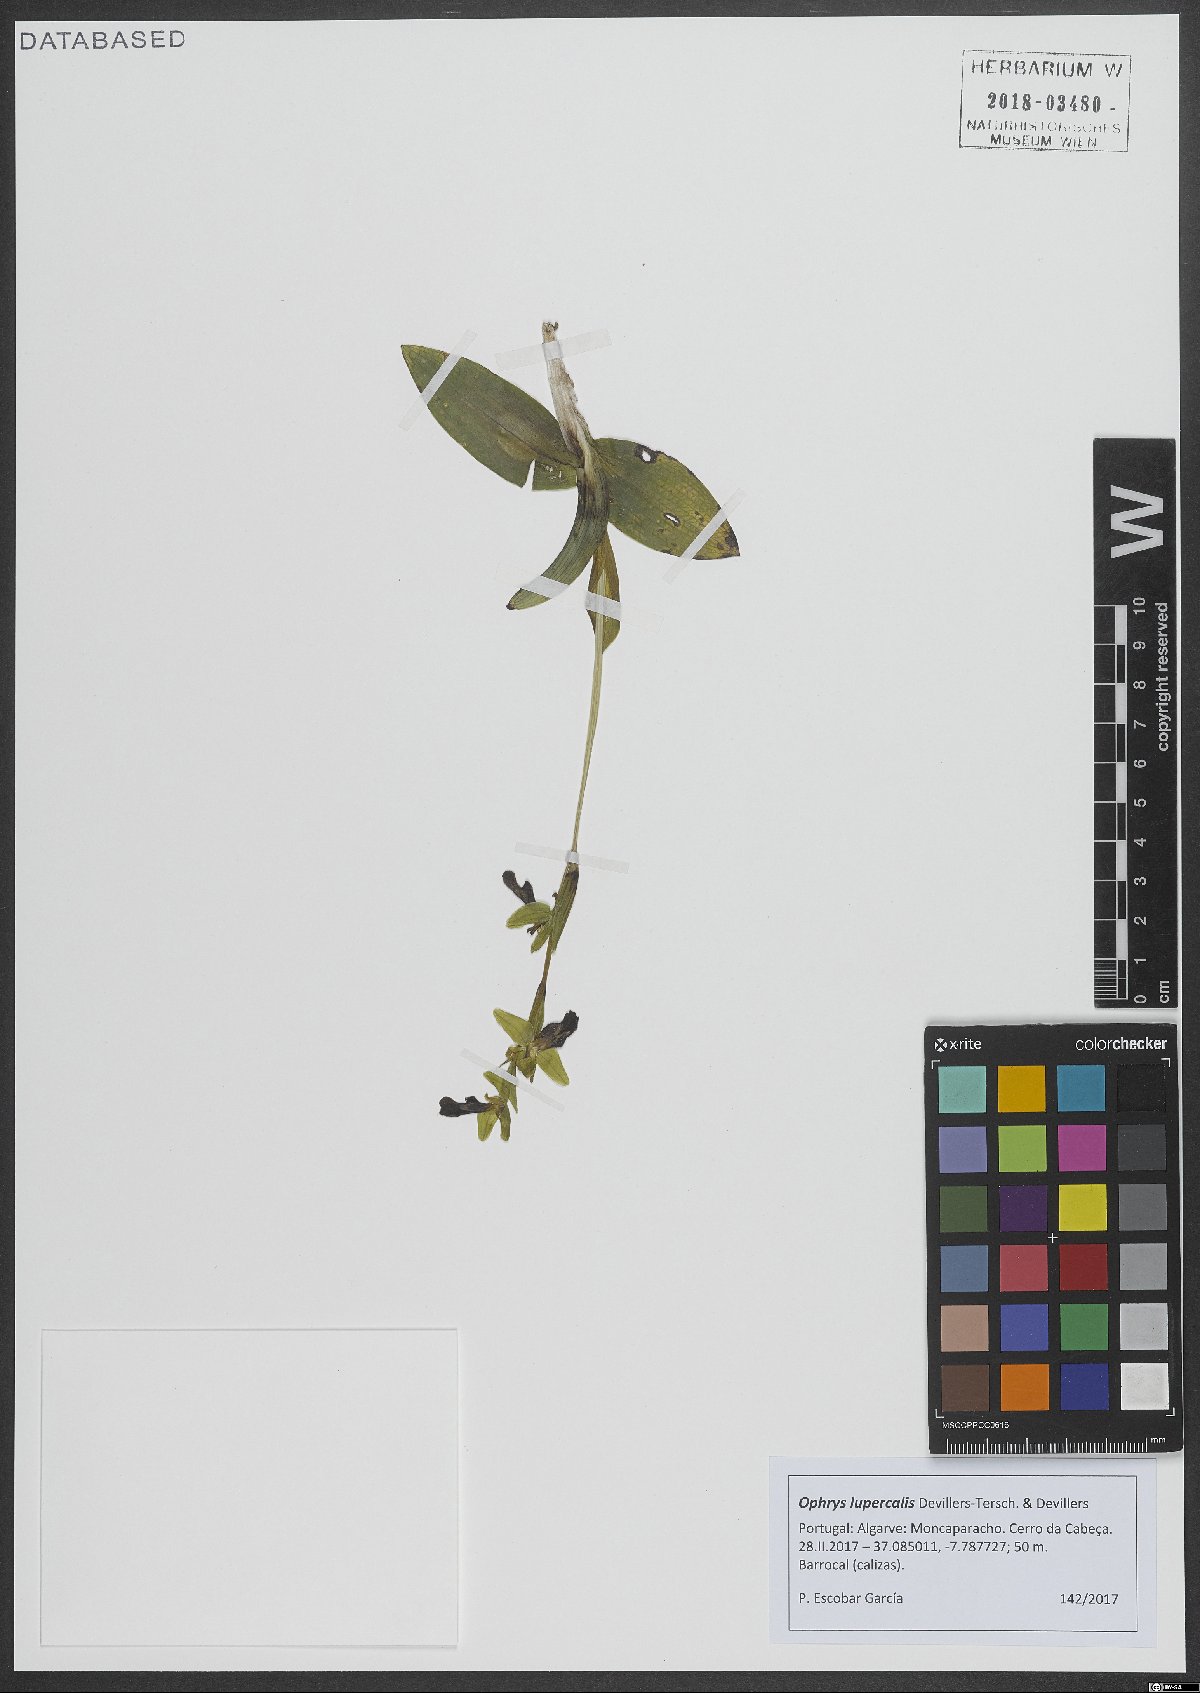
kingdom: Plantae
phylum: Tracheophyta
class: Liliopsida
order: Asparagales
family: Orchidaceae
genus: Ophrys
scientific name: Ophrys fusca
